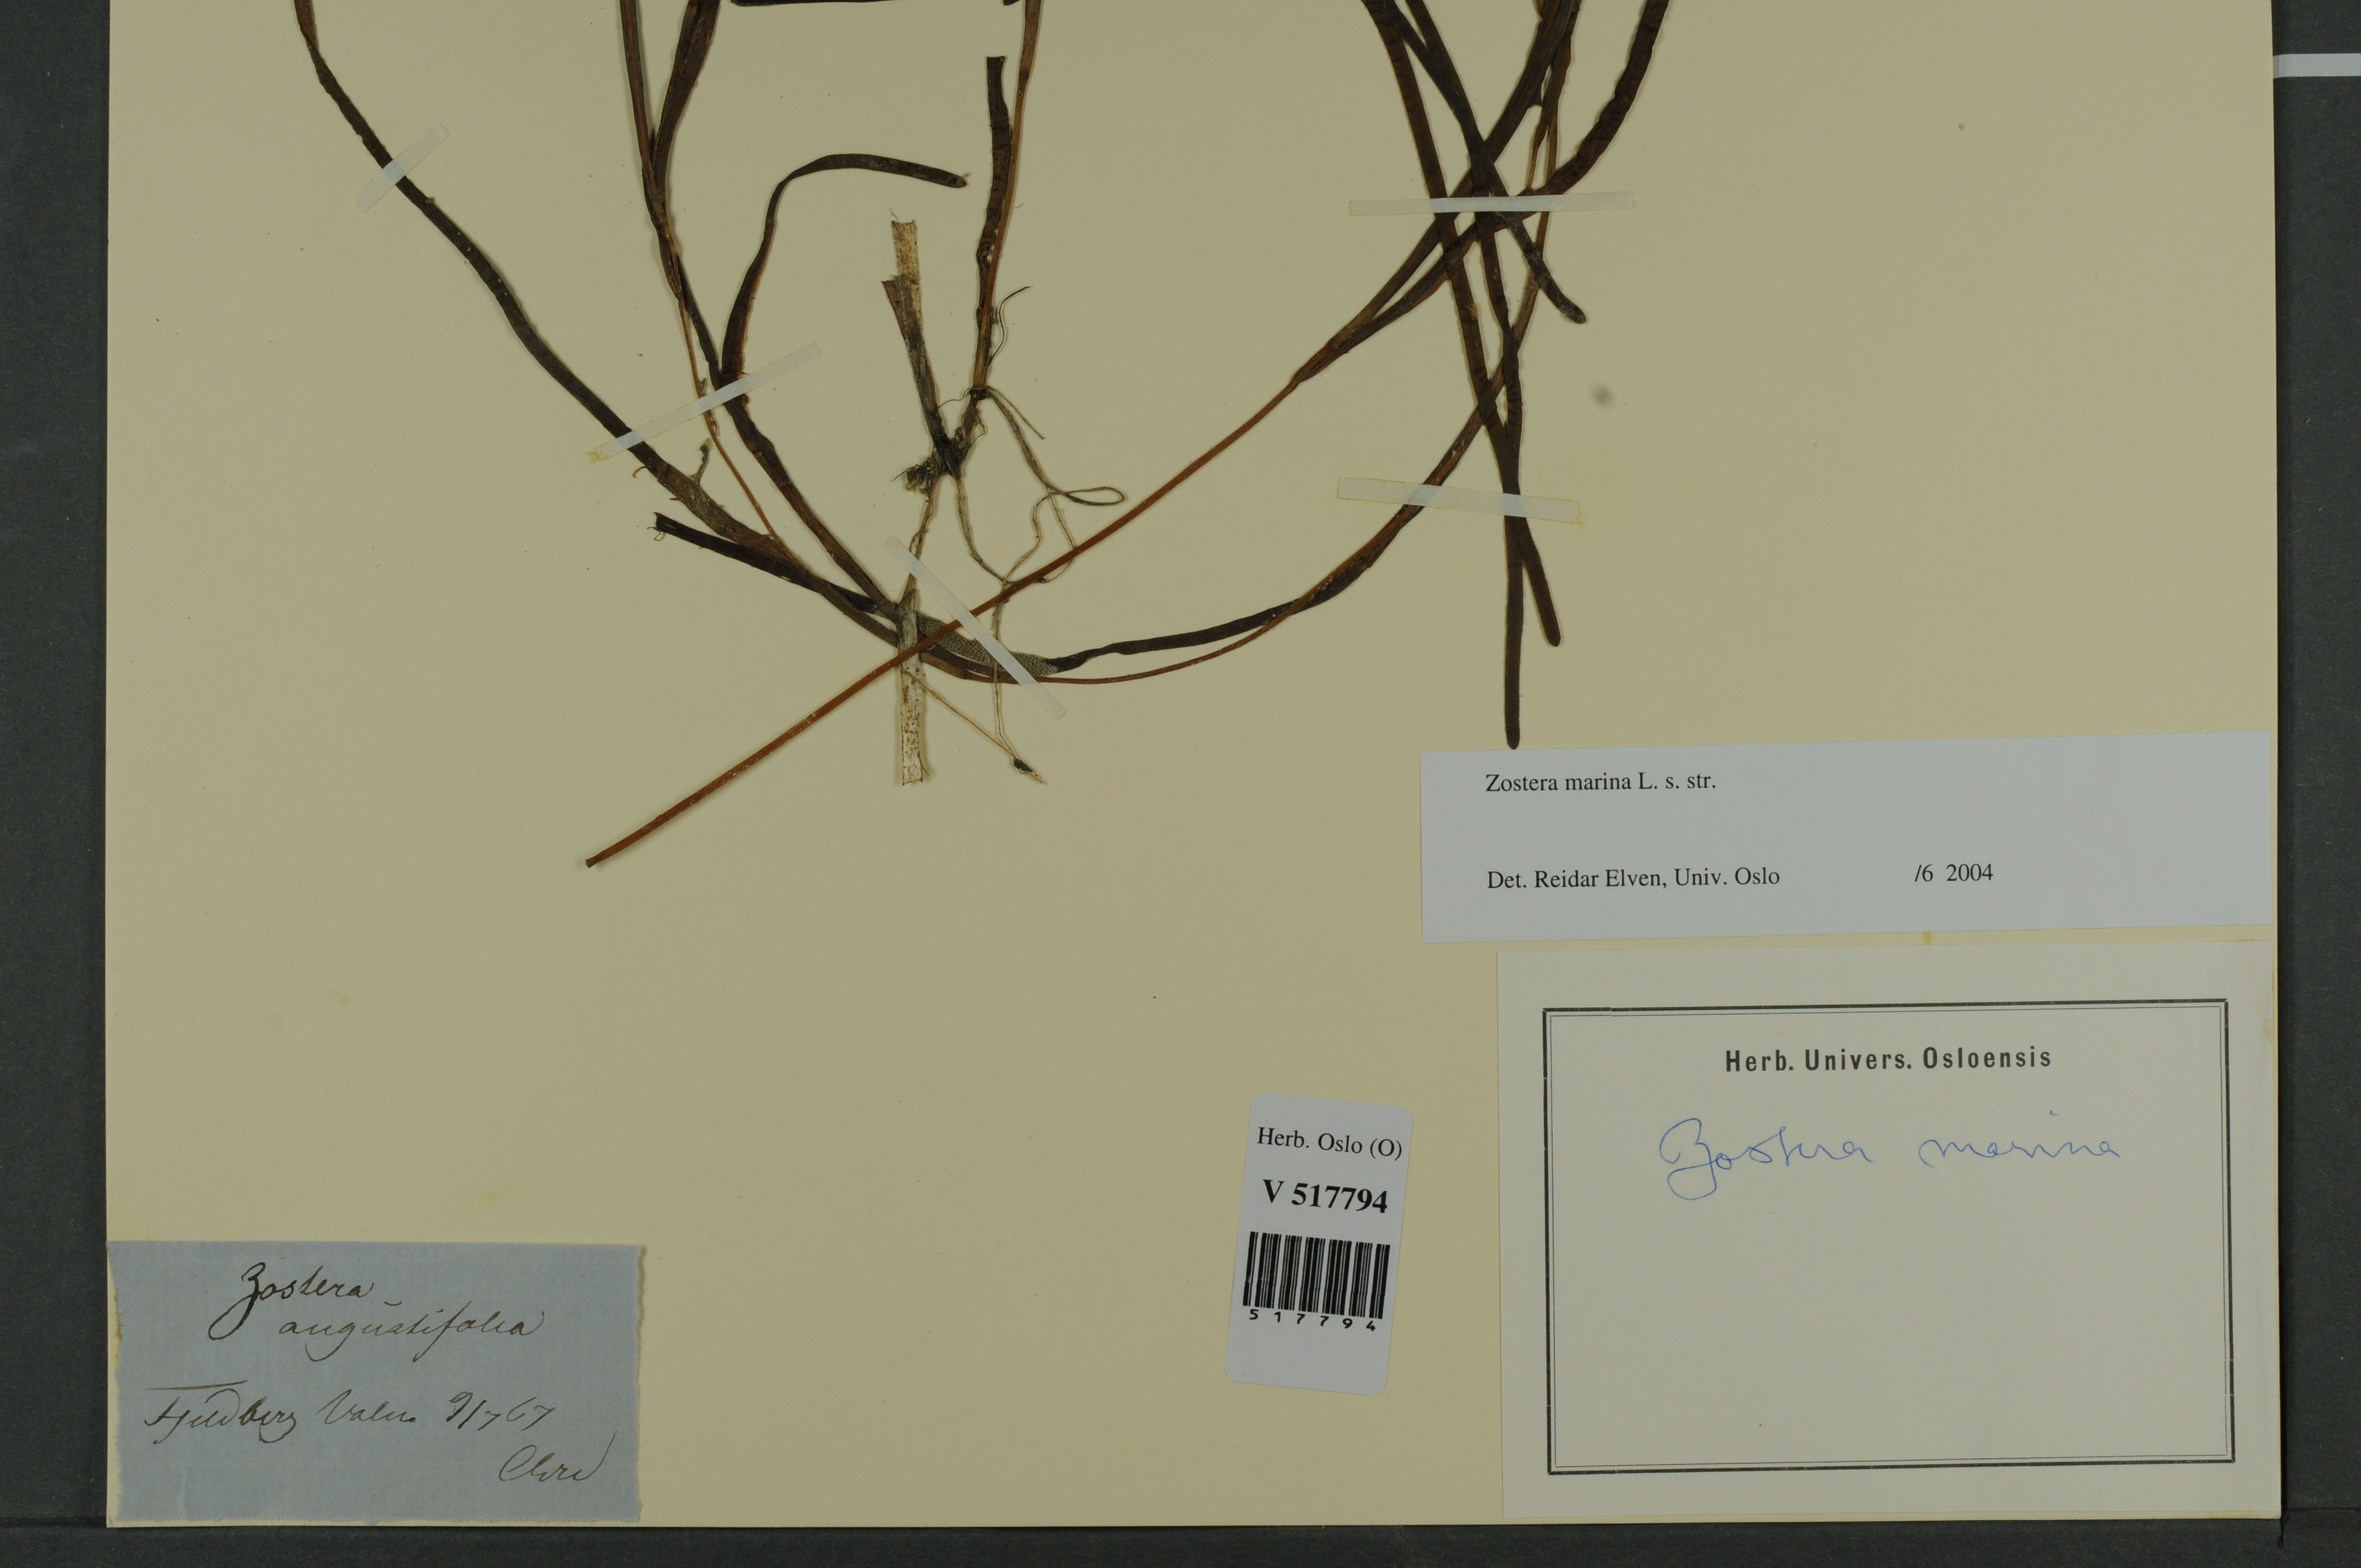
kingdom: Plantae
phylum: Tracheophyta
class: Liliopsida
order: Alismatales
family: Zosteraceae
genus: Zostera
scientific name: Zostera marina
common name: Eelgrass
